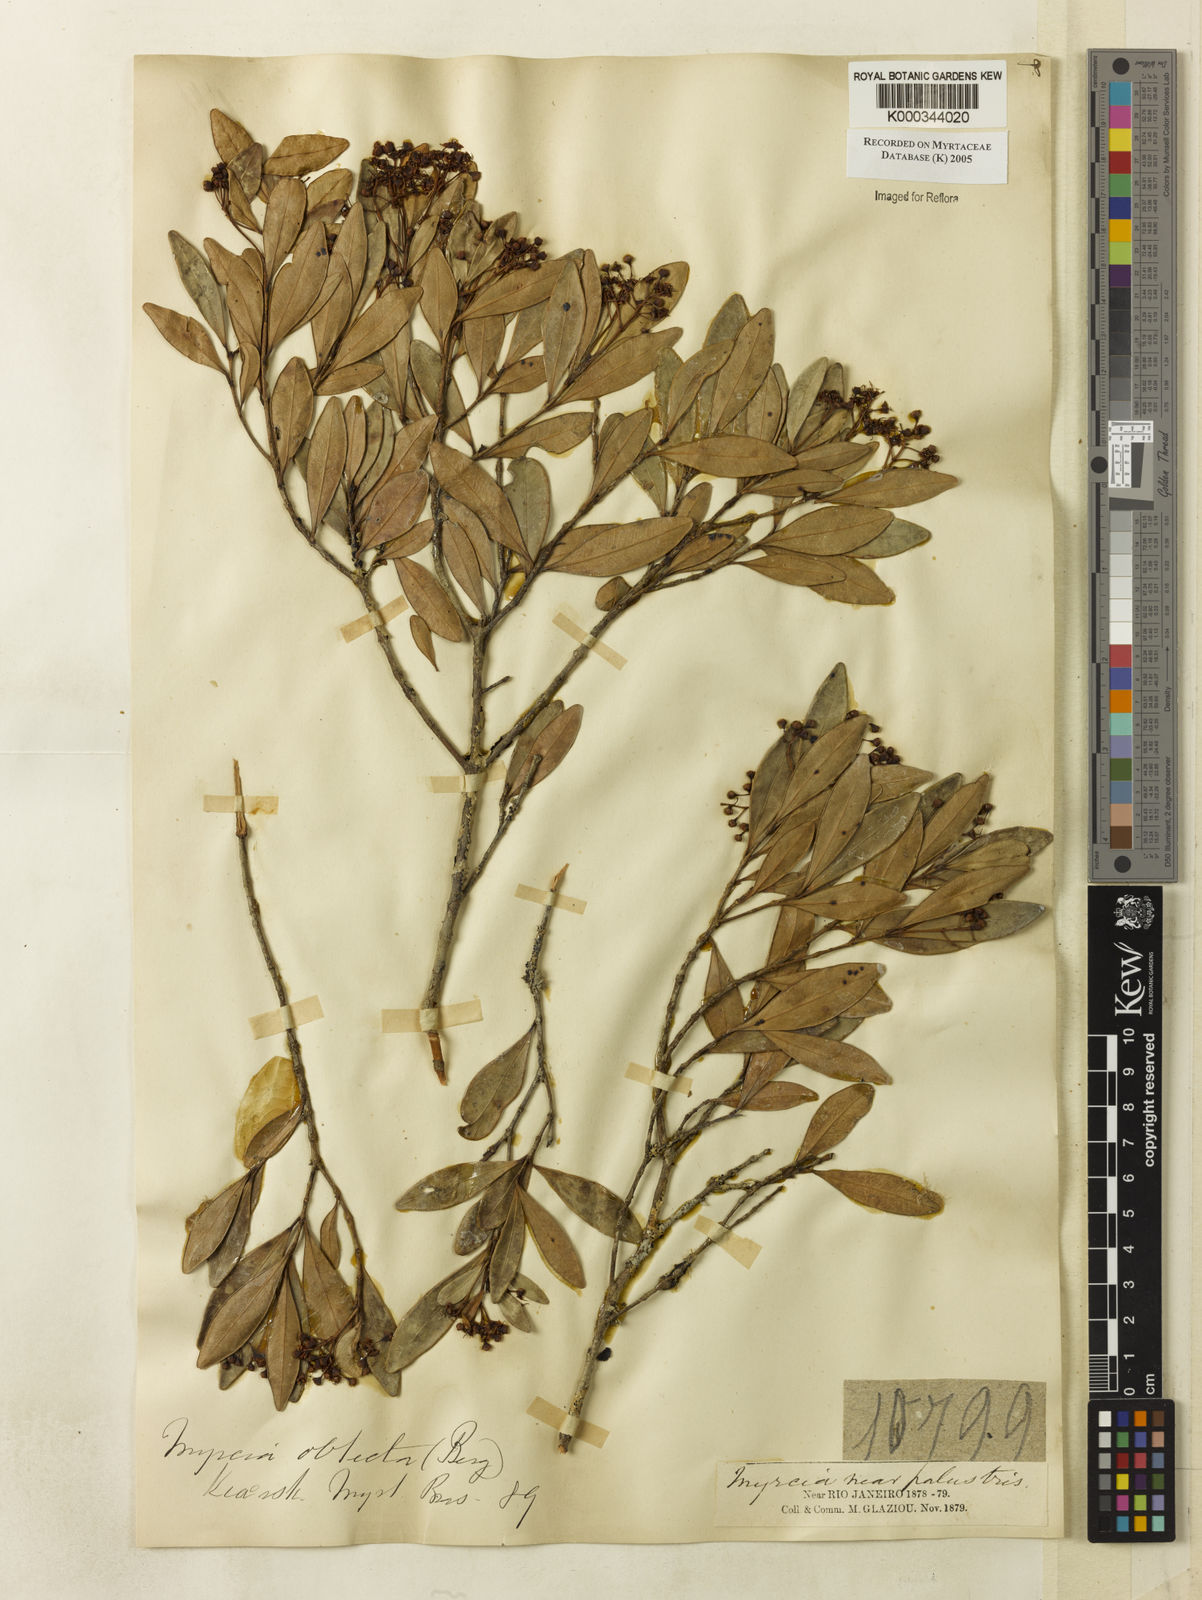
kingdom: Plantae
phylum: Tracheophyta
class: Magnoliopsida
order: Myrtales
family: Myrtaceae
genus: Myrcia
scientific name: Myrcia guianensis
